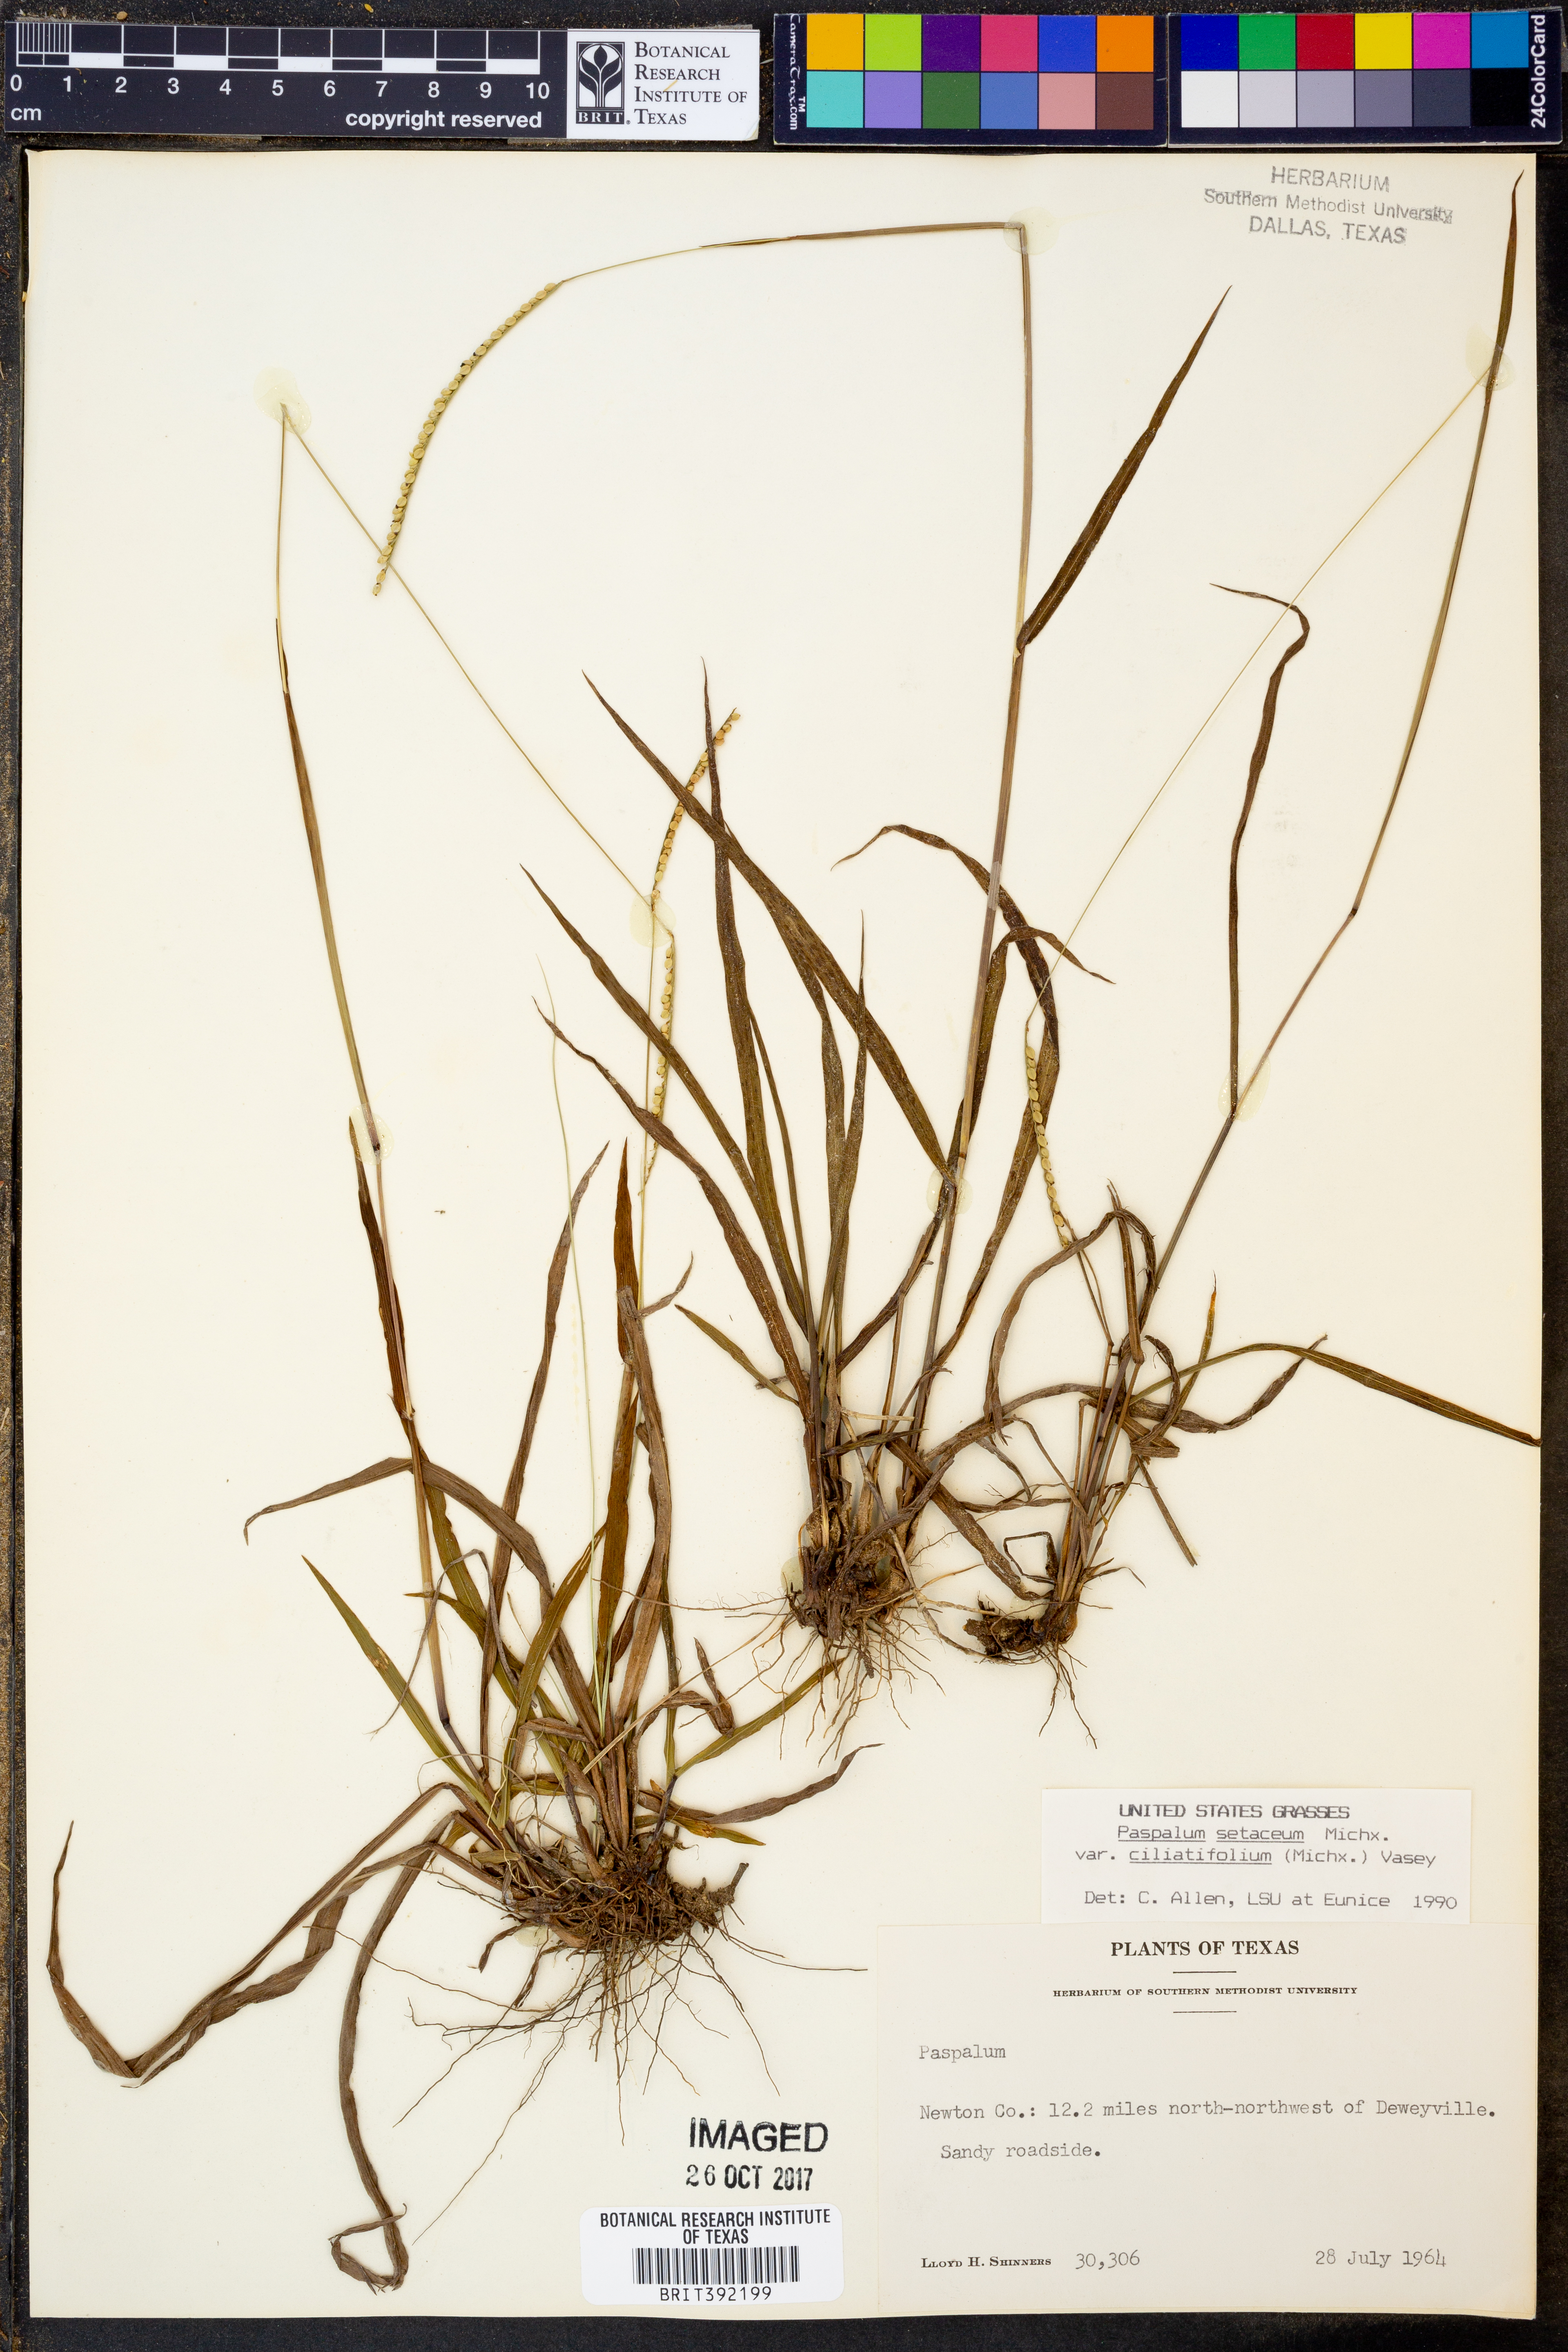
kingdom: Plantae
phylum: Tracheophyta
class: Liliopsida
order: Poales
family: Poaceae
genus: Paspalum
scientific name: Paspalum setaceum
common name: Slender paspalum
